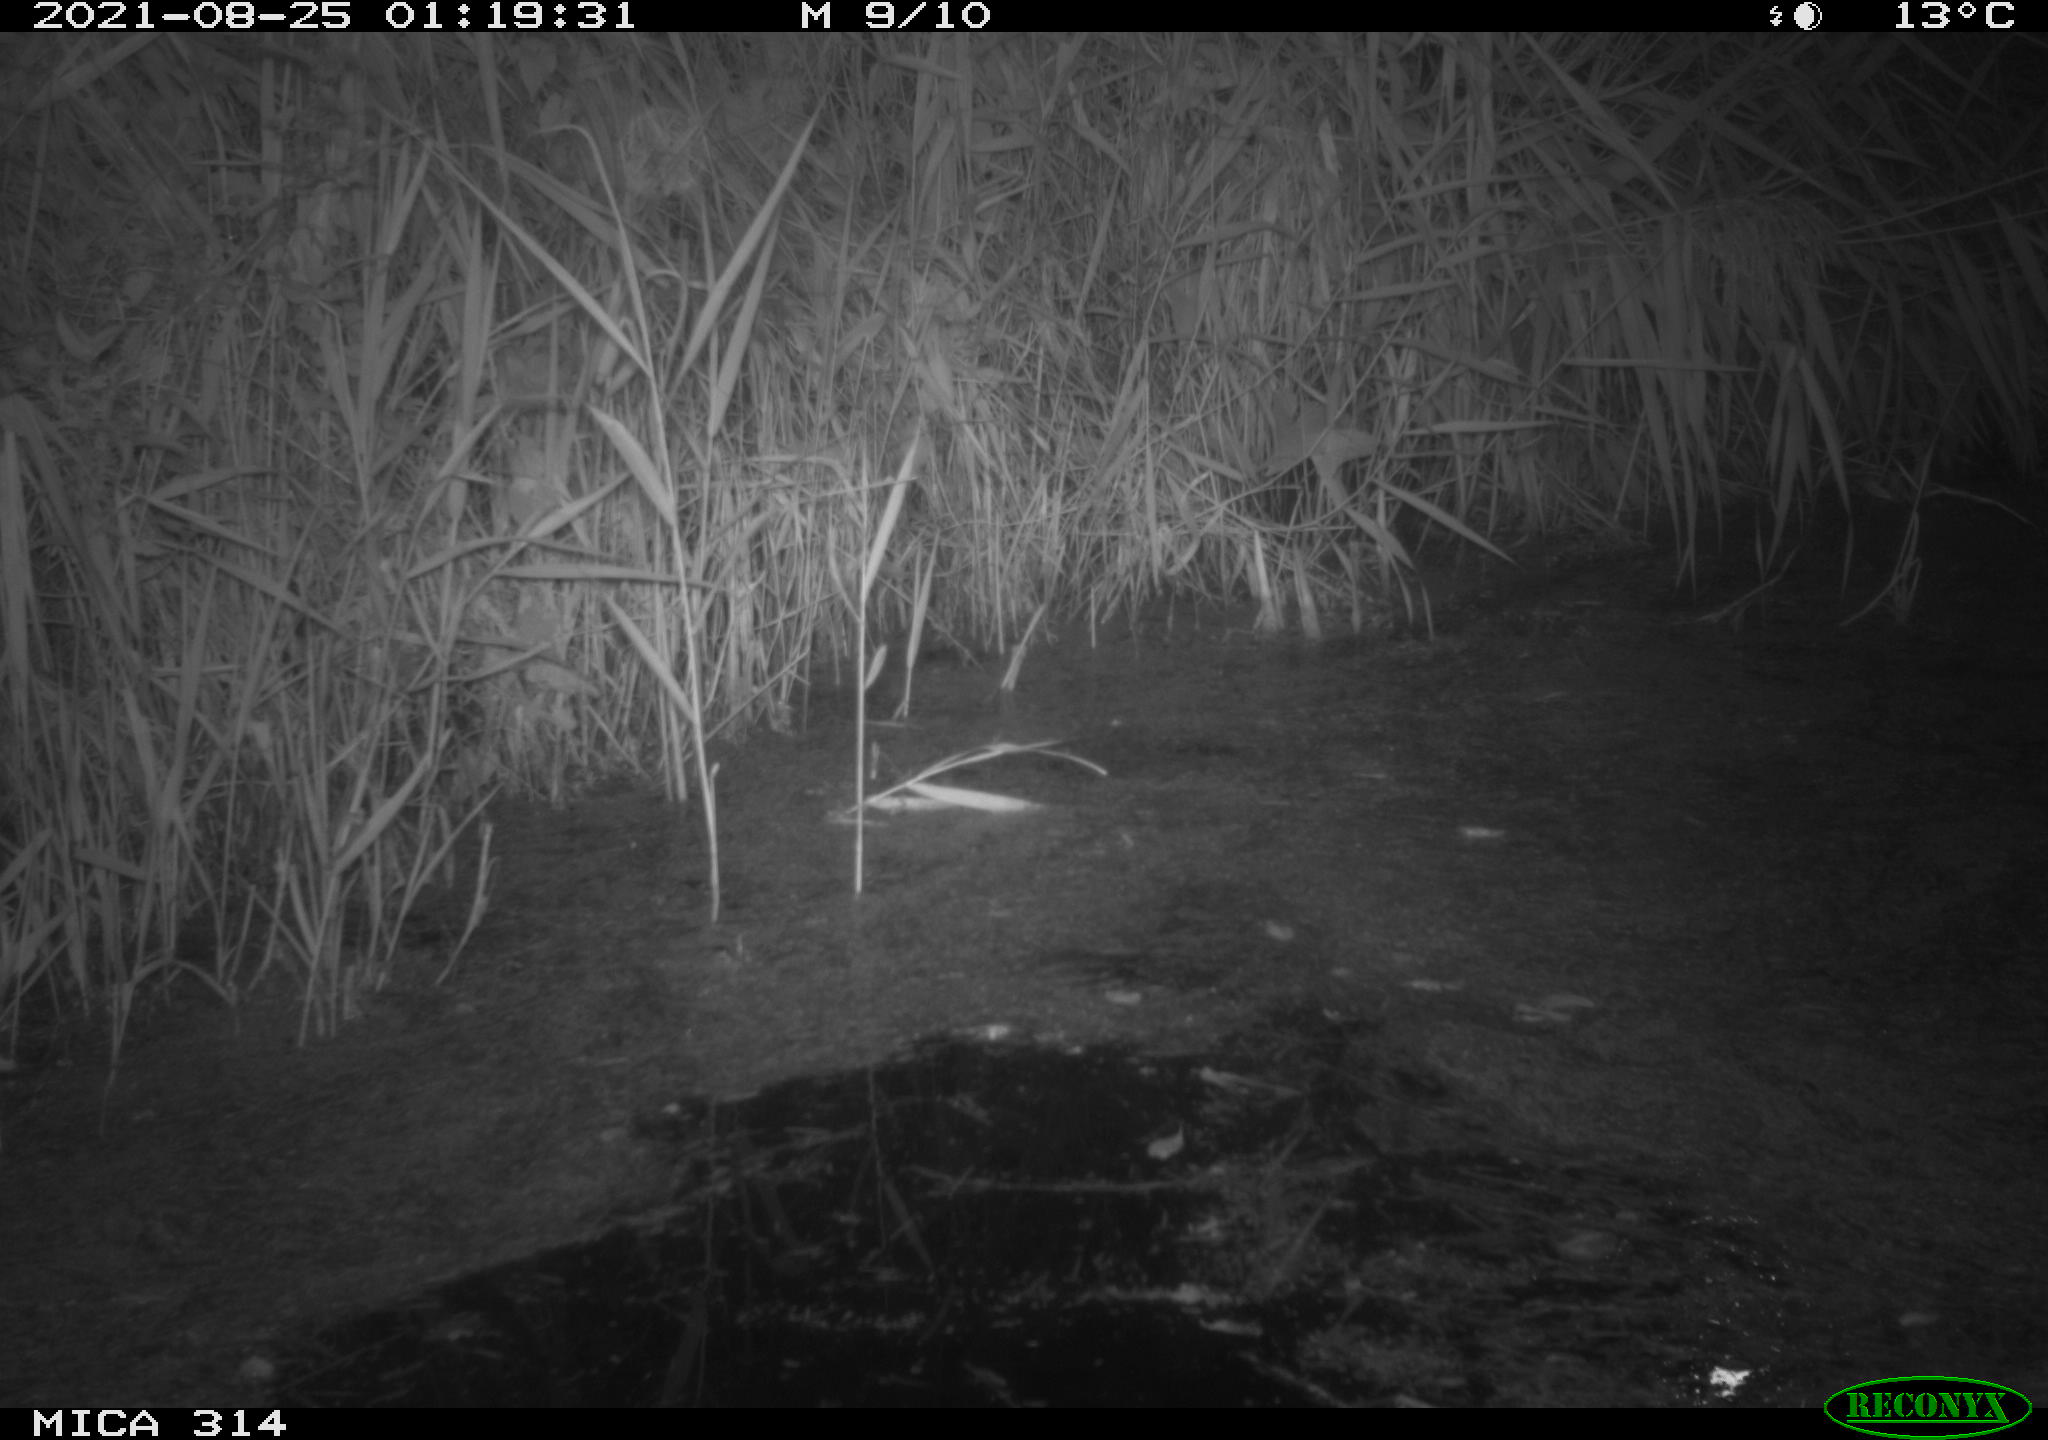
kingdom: Animalia
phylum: Chordata
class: Mammalia
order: Rodentia
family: Muridae
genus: Rattus
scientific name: Rattus norvegicus
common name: Brown rat
